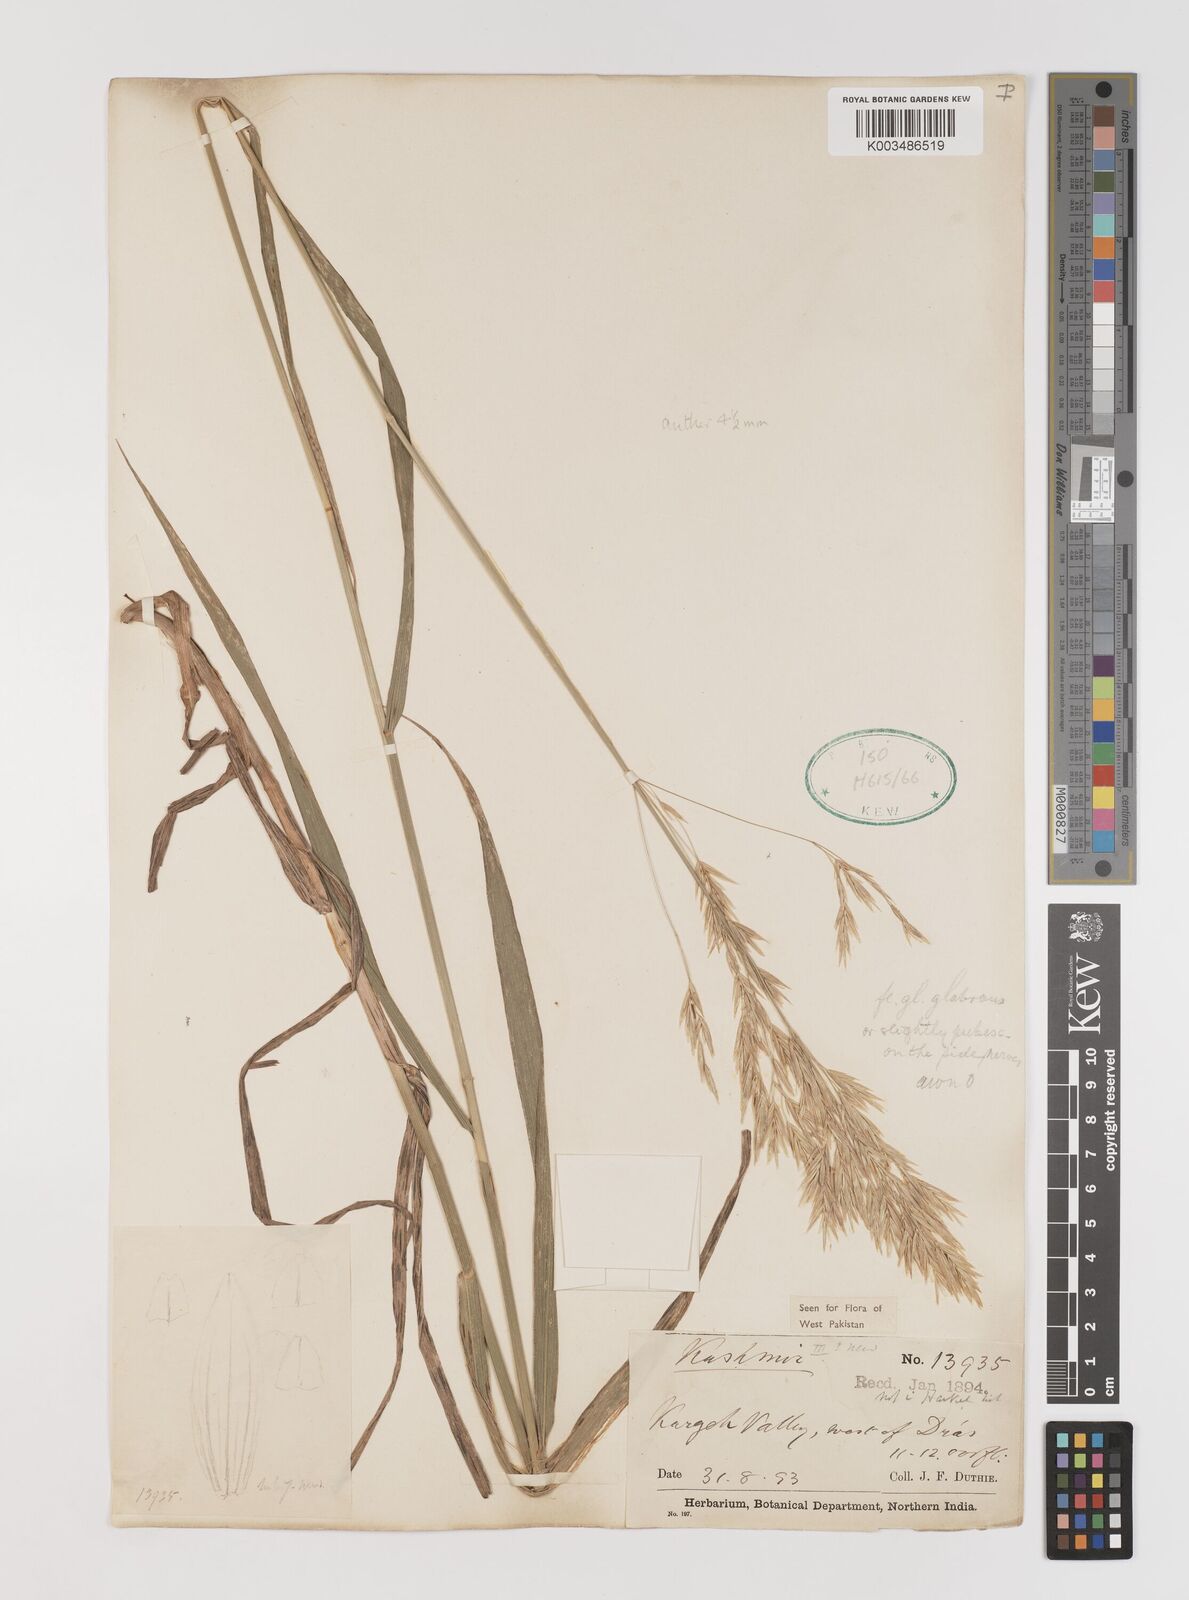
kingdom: Plantae
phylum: Tracheophyta
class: Liliopsida
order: Poales
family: Poaceae
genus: Bromus
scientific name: Bromus inermis
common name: Smooth brome
